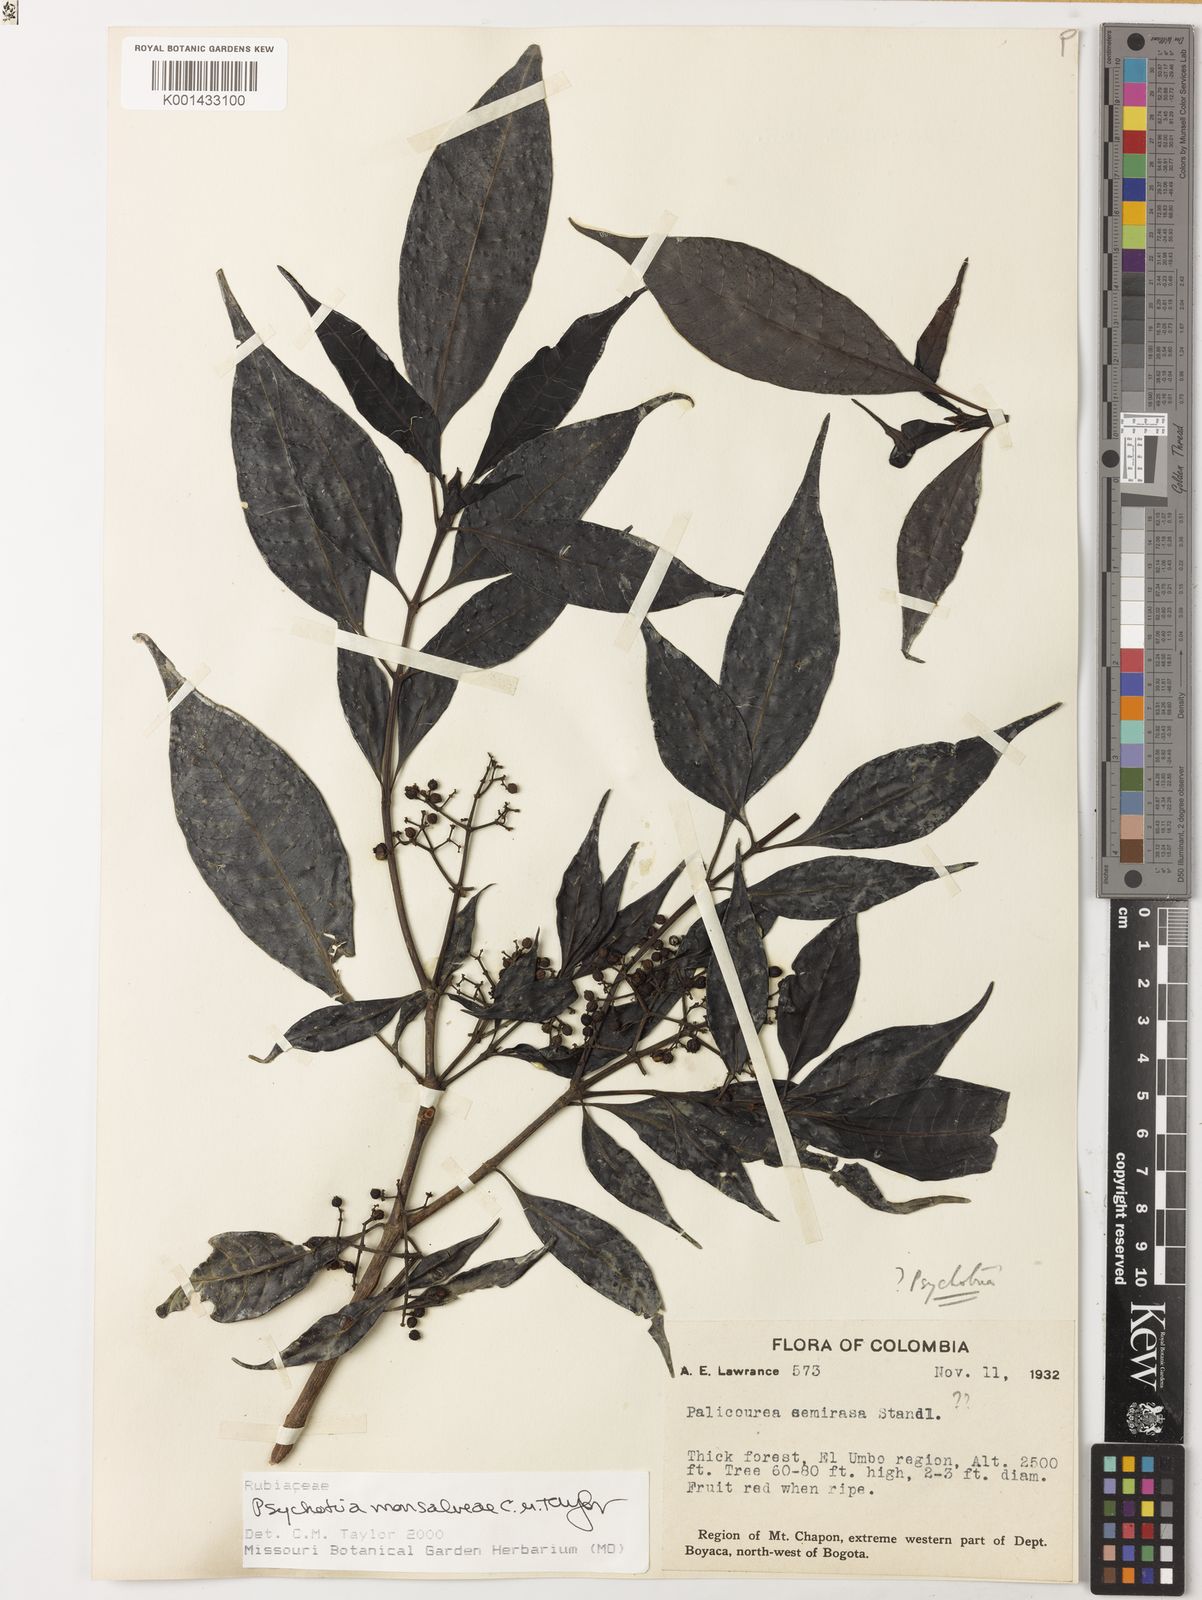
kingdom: Plantae
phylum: Tracheophyta
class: Magnoliopsida
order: Gentianales
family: Rubiaceae
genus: Psychotria
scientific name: Psychotria monsalveae
